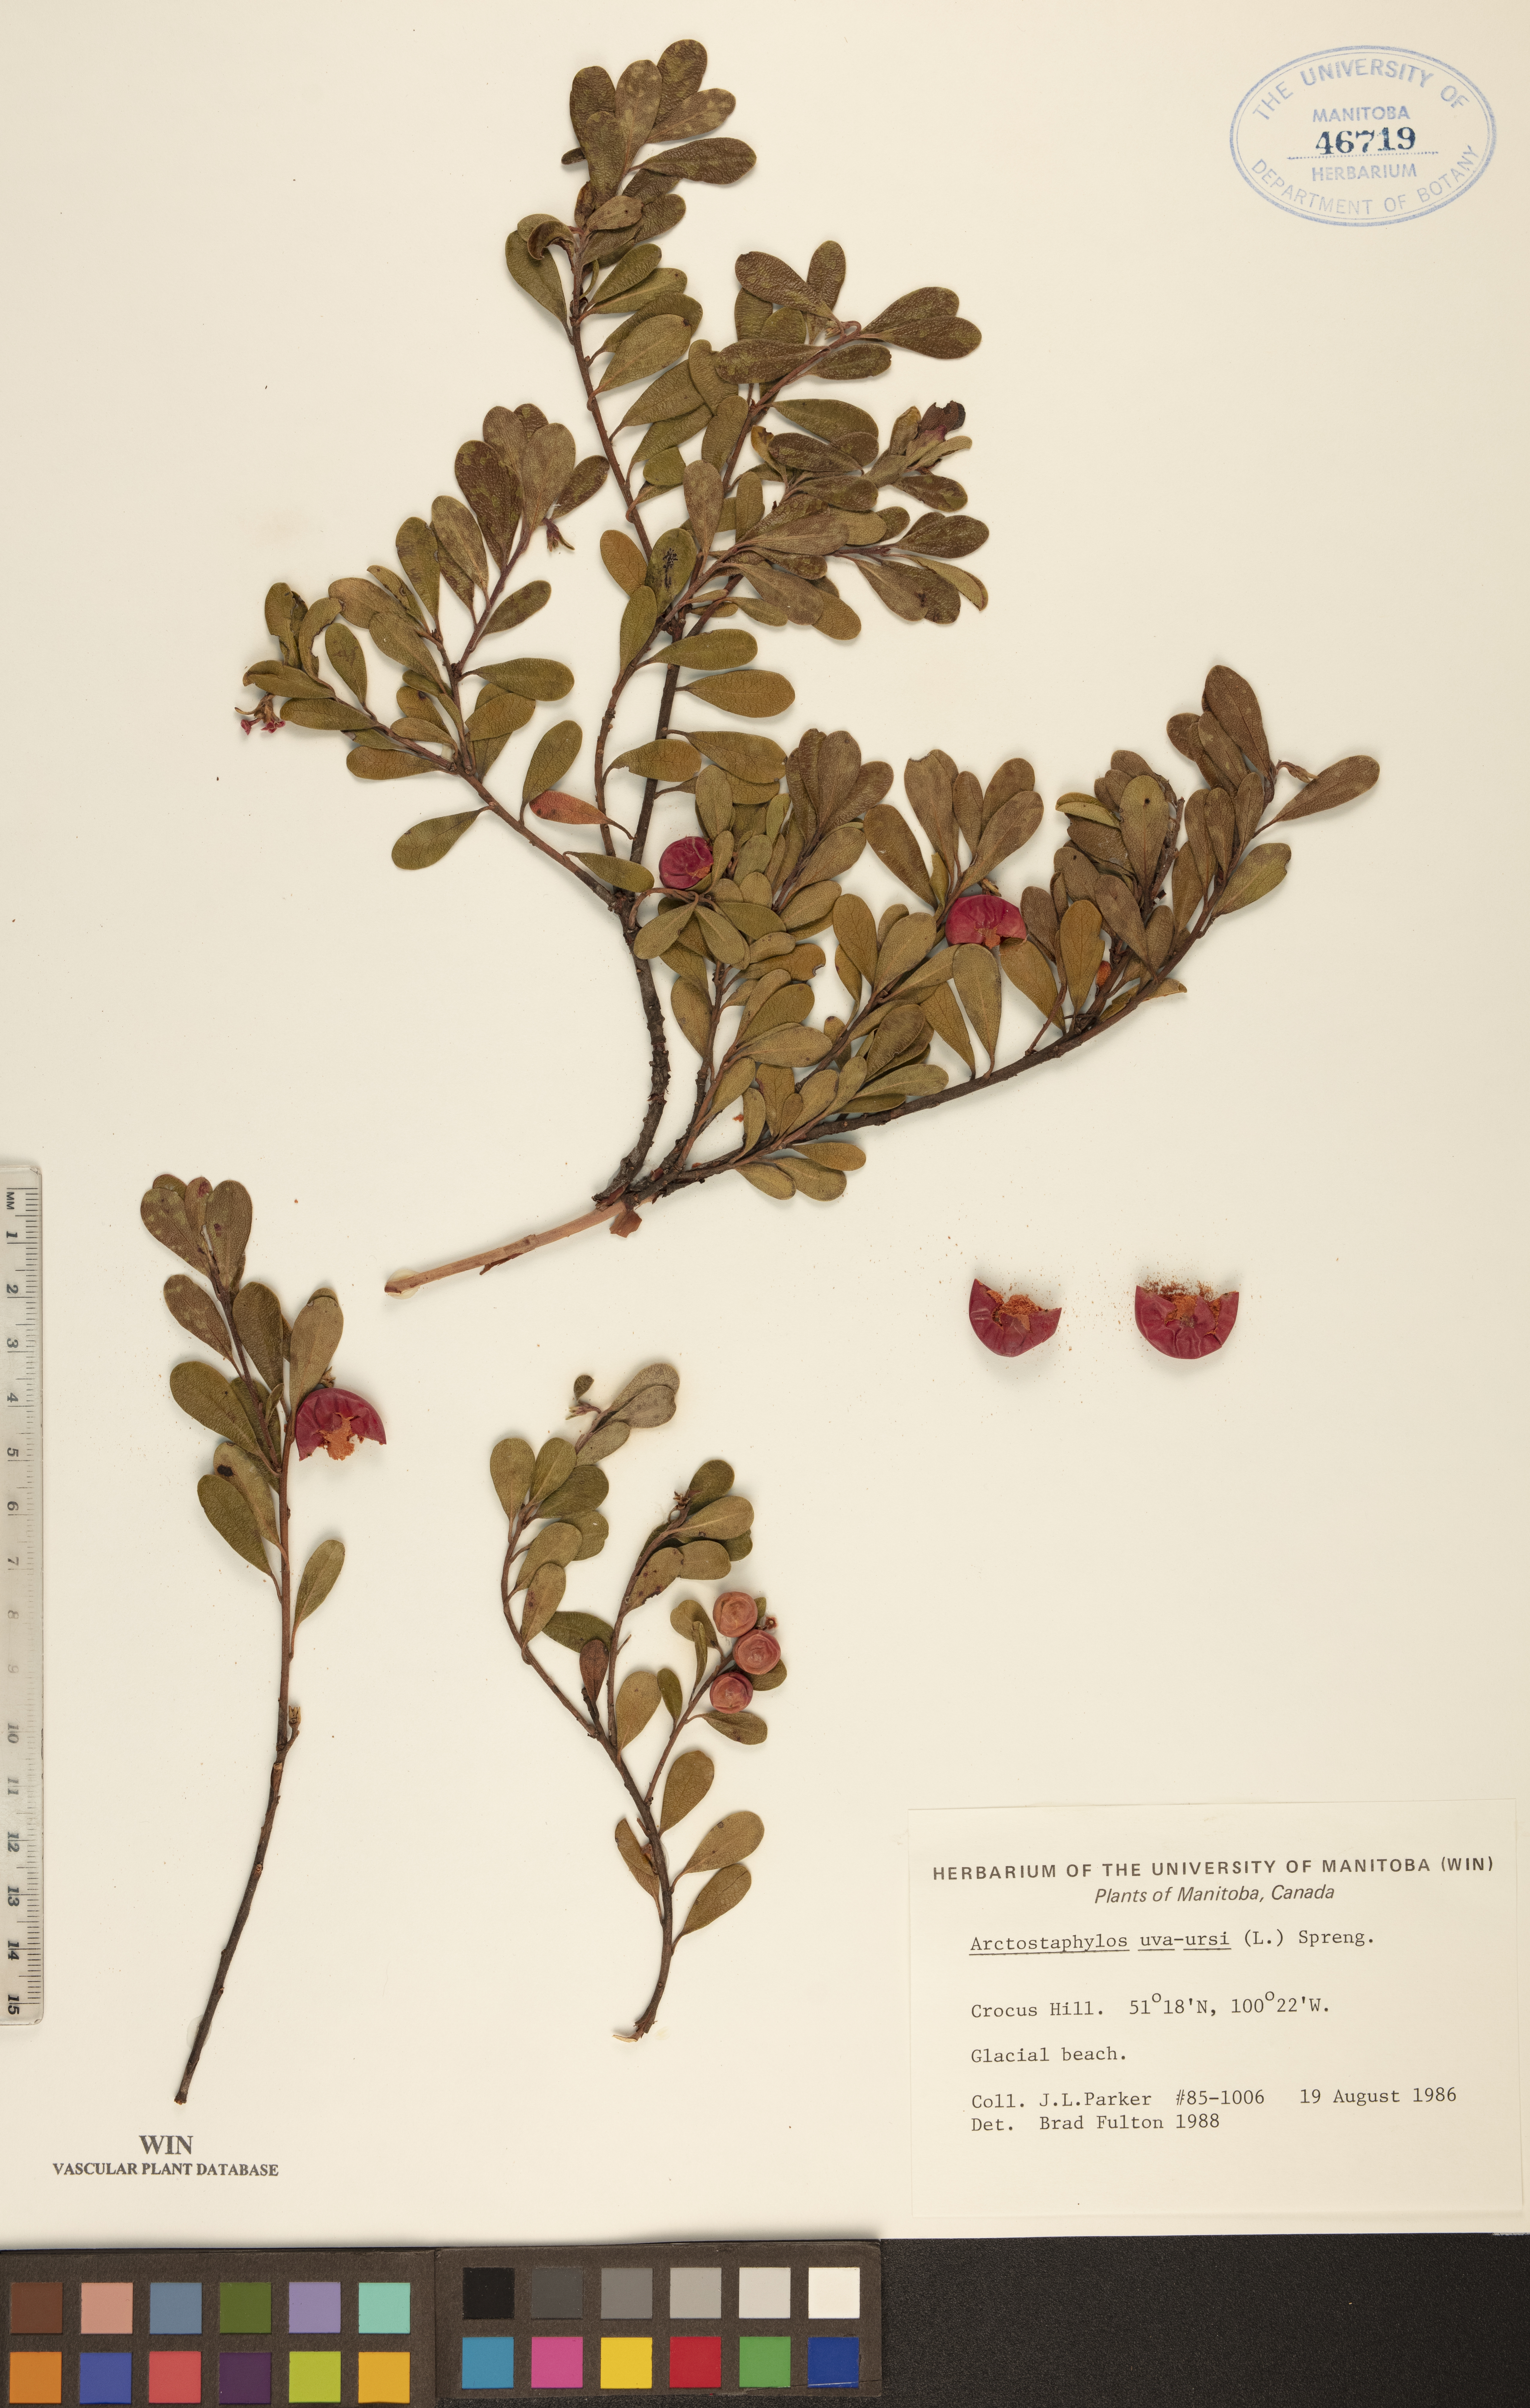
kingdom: Plantae
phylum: Tracheophyta
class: Magnoliopsida
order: Ericales
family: Ericaceae
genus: Arctostaphylos
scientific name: Arctostaphylos uva-ursi
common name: Bearberry
